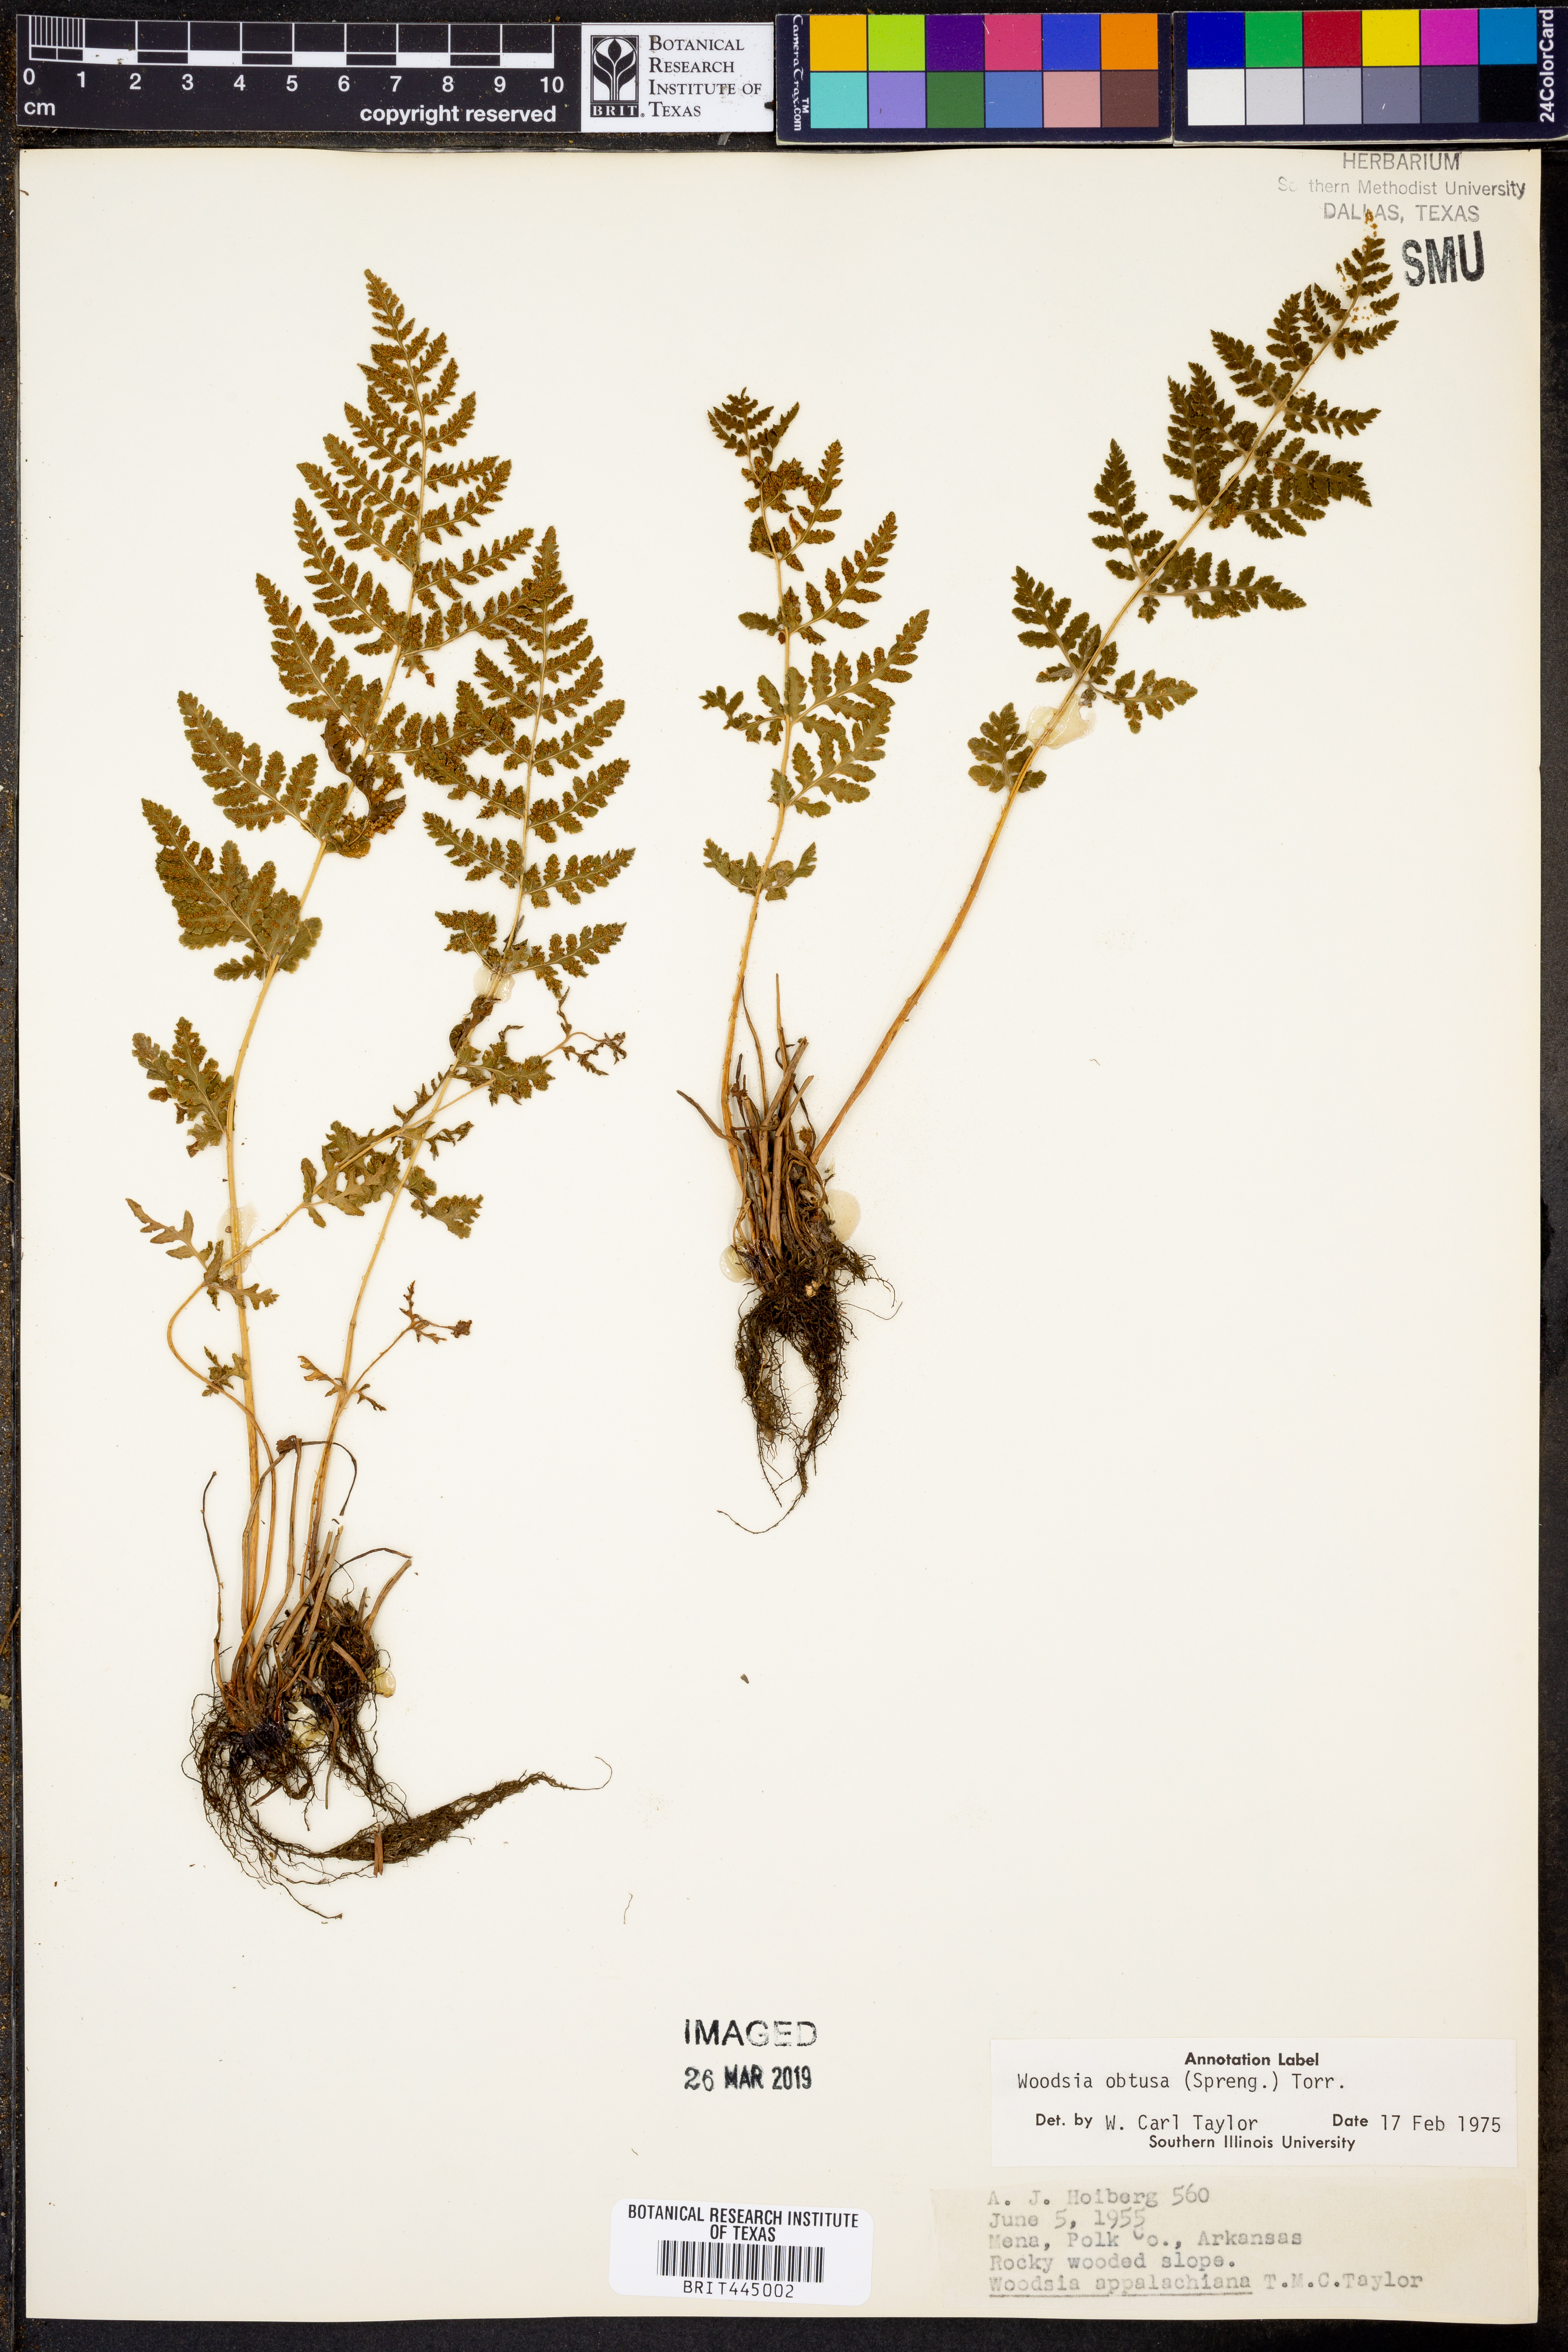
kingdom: Plantae
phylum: Tracheophyta
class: Polypodiopsida
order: Polypodiales
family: Woodsiaceae
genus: Physematium
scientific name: Physematium obtusum
